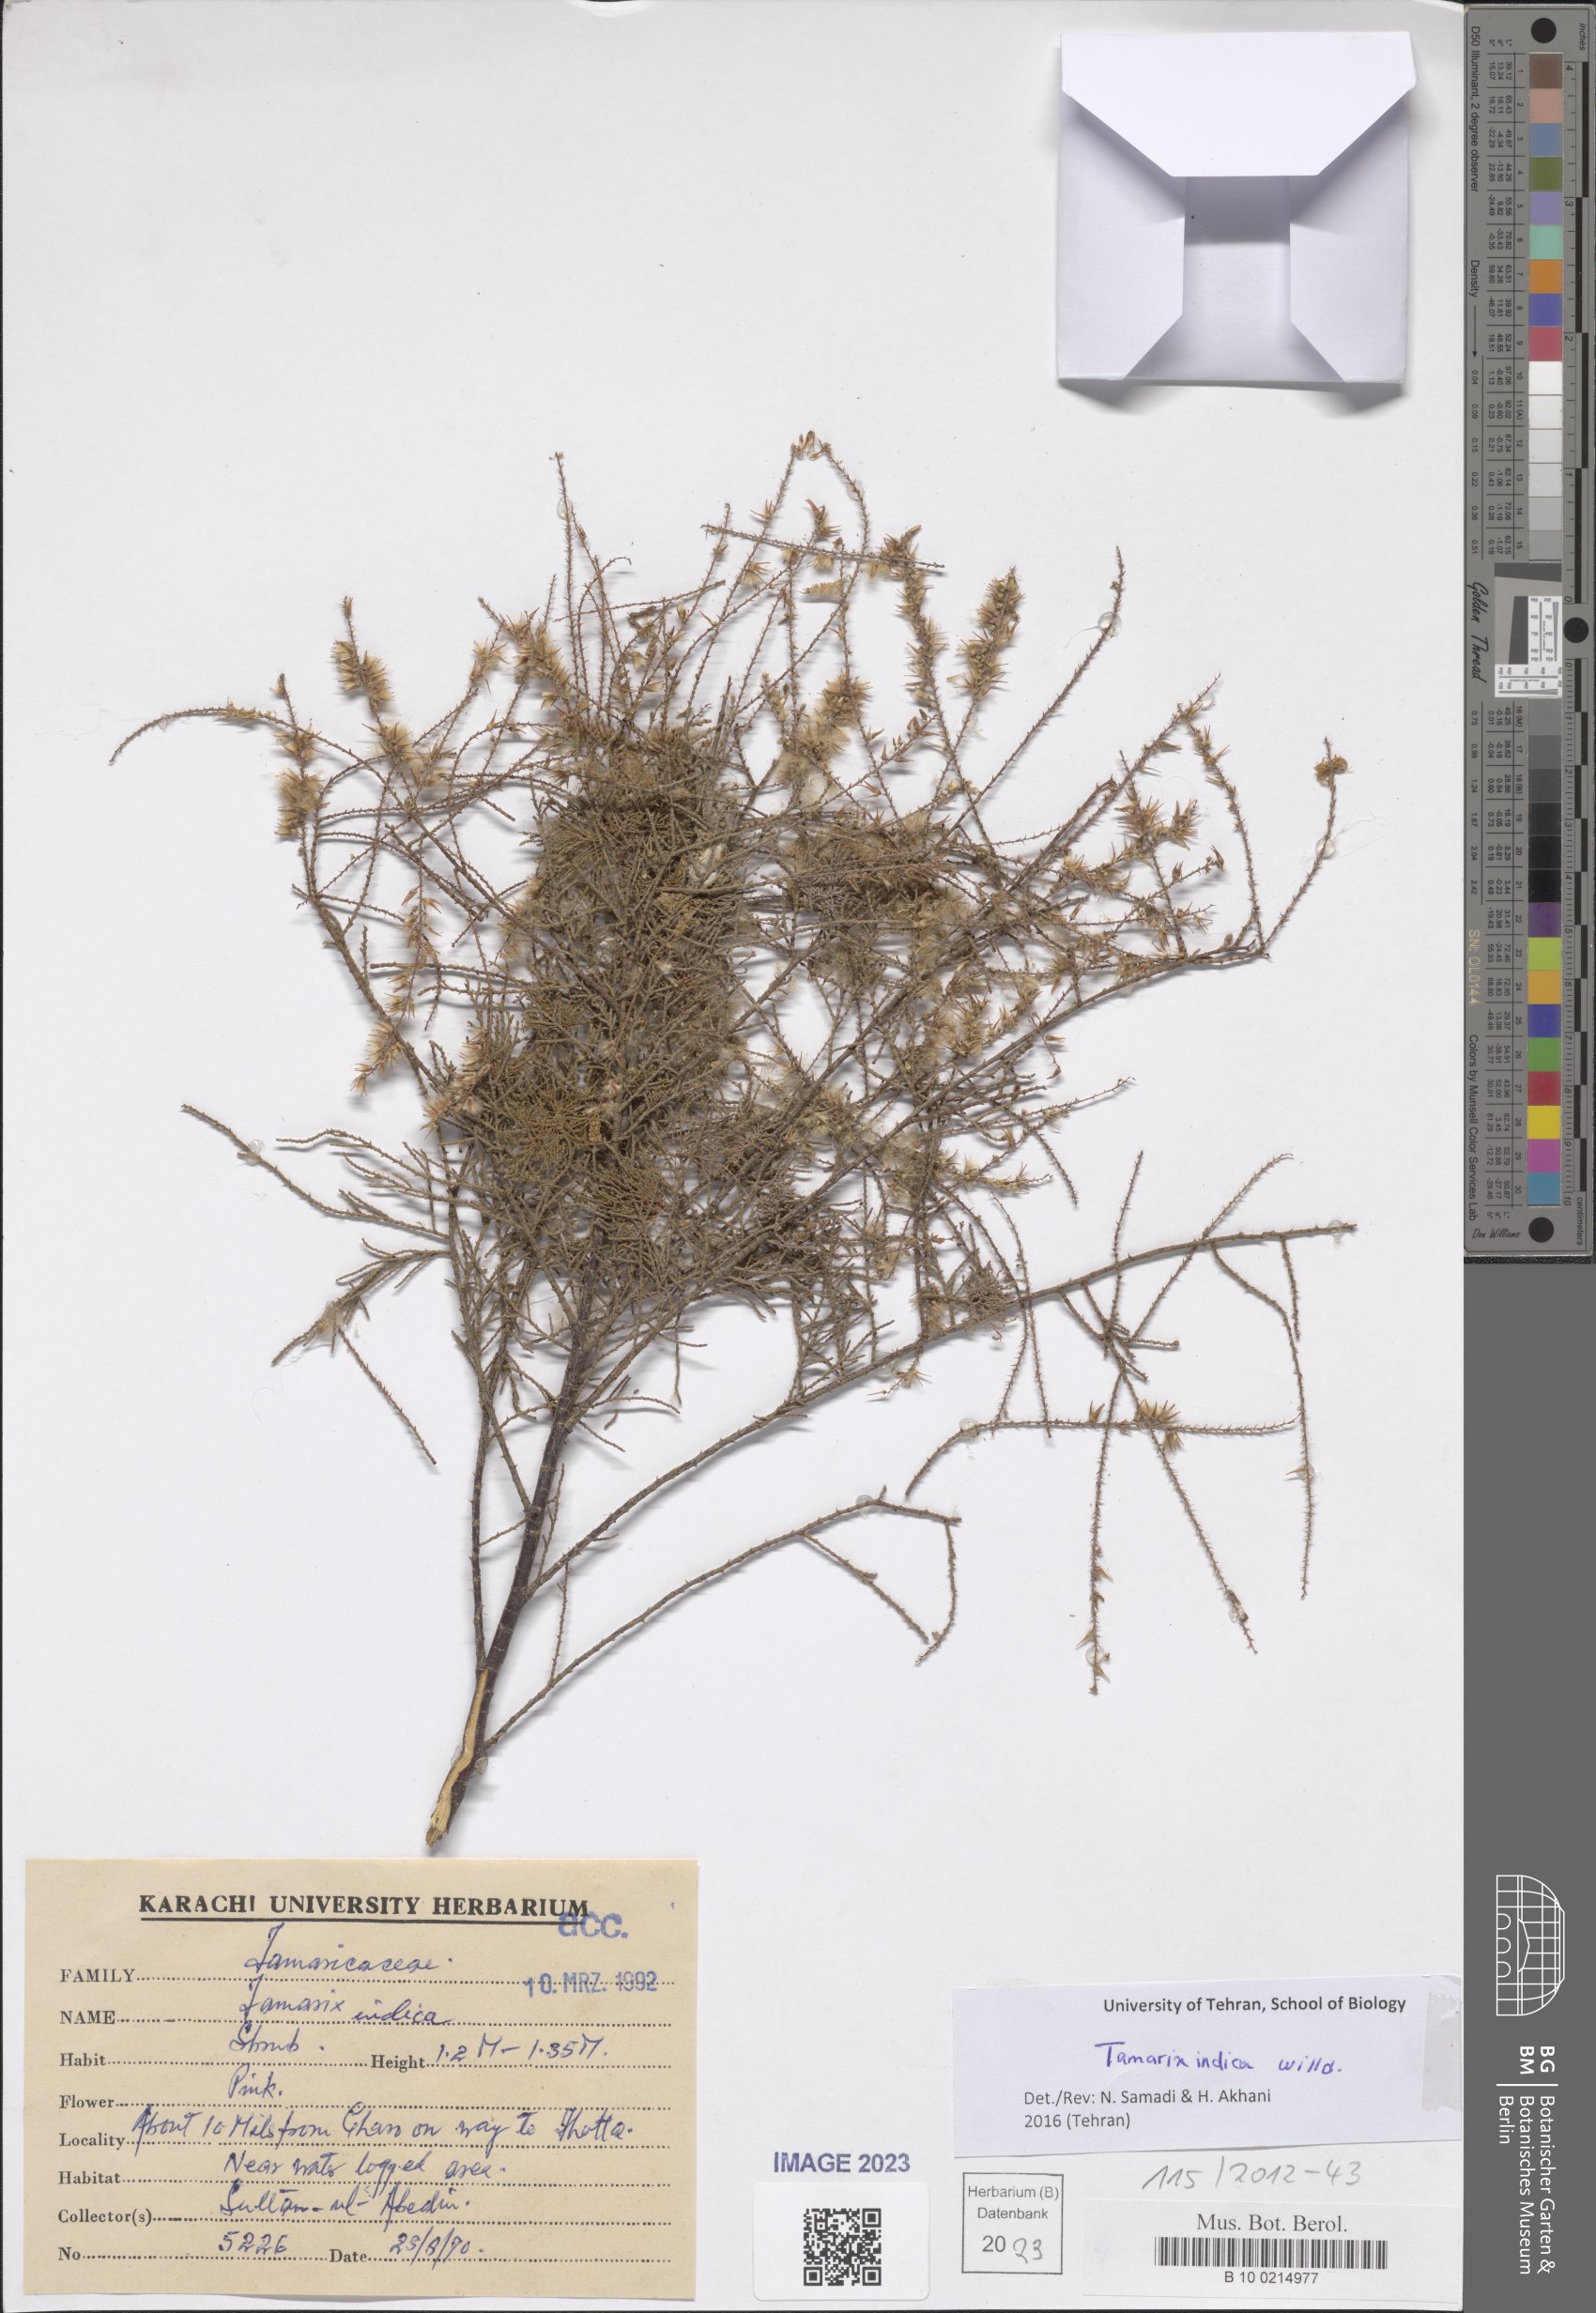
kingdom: Plantae
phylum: Tracheophyta
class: Magnoliopsida
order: Caryophyllales
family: Tamaricaceae
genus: Tamarix
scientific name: Tamarix indica
